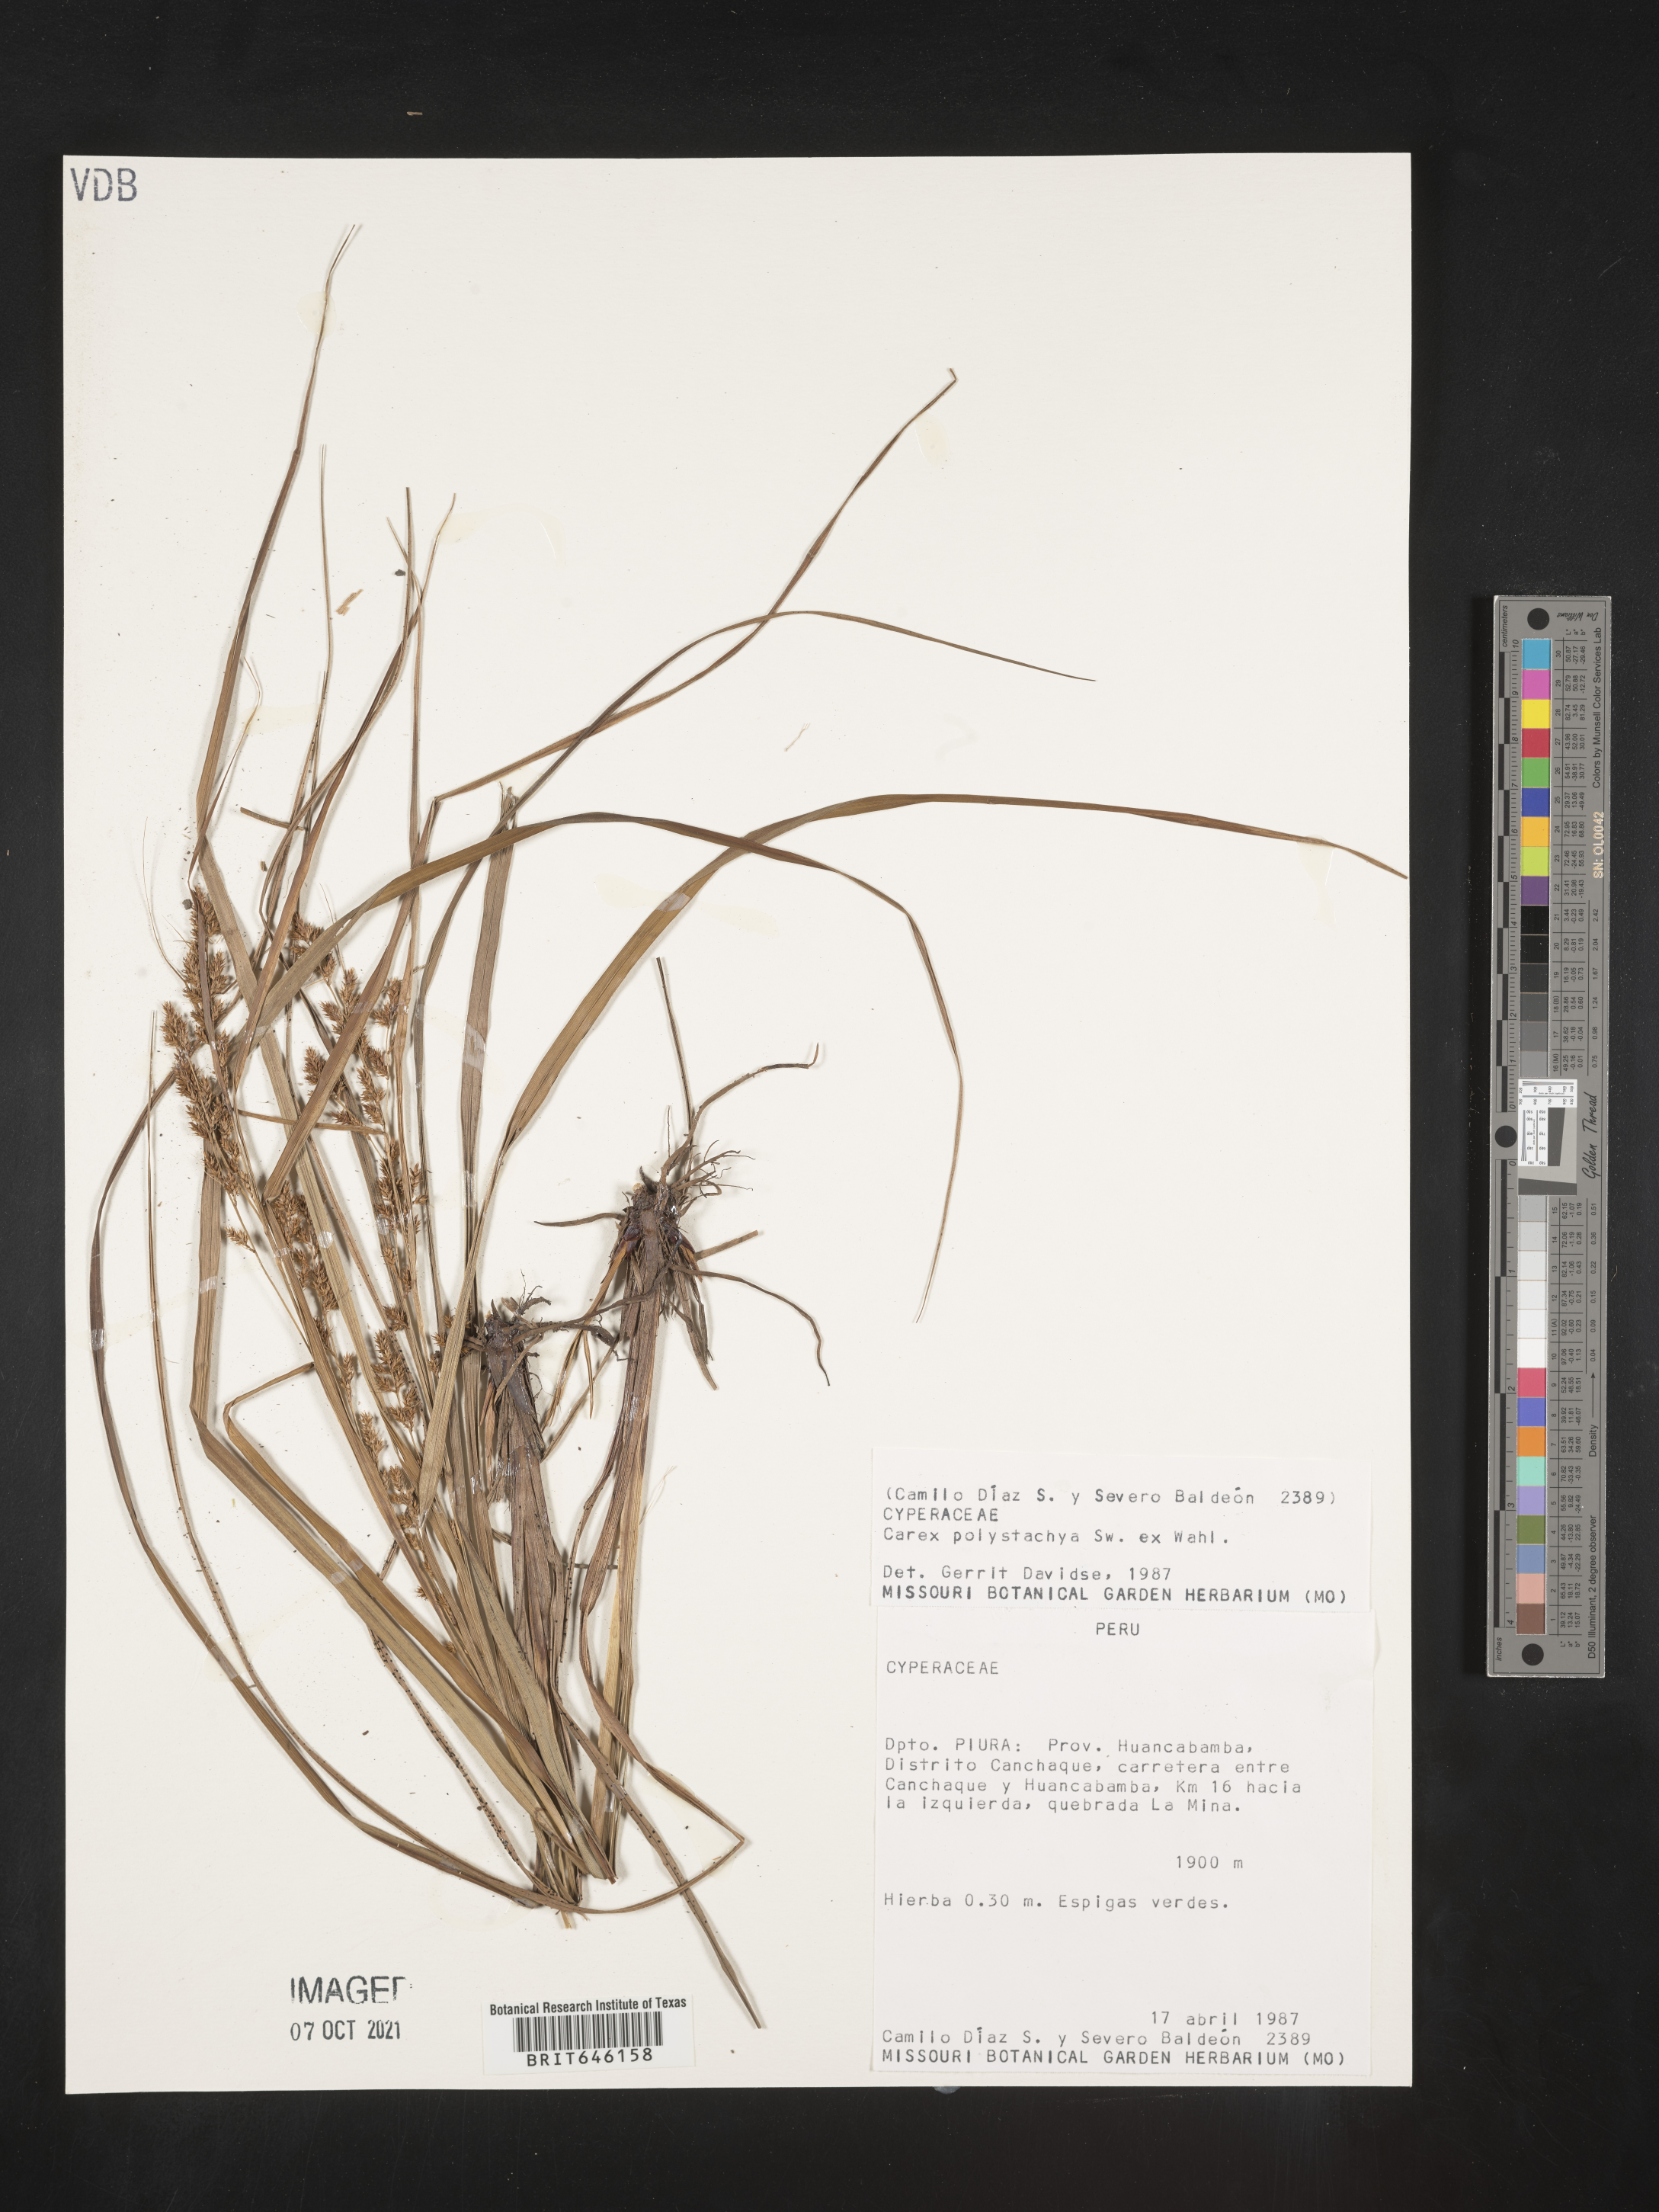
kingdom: Plantae
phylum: Tracheophyta
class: Liliopsida
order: Poales
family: Cyperaceae
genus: Carex
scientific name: Carex polystachya
